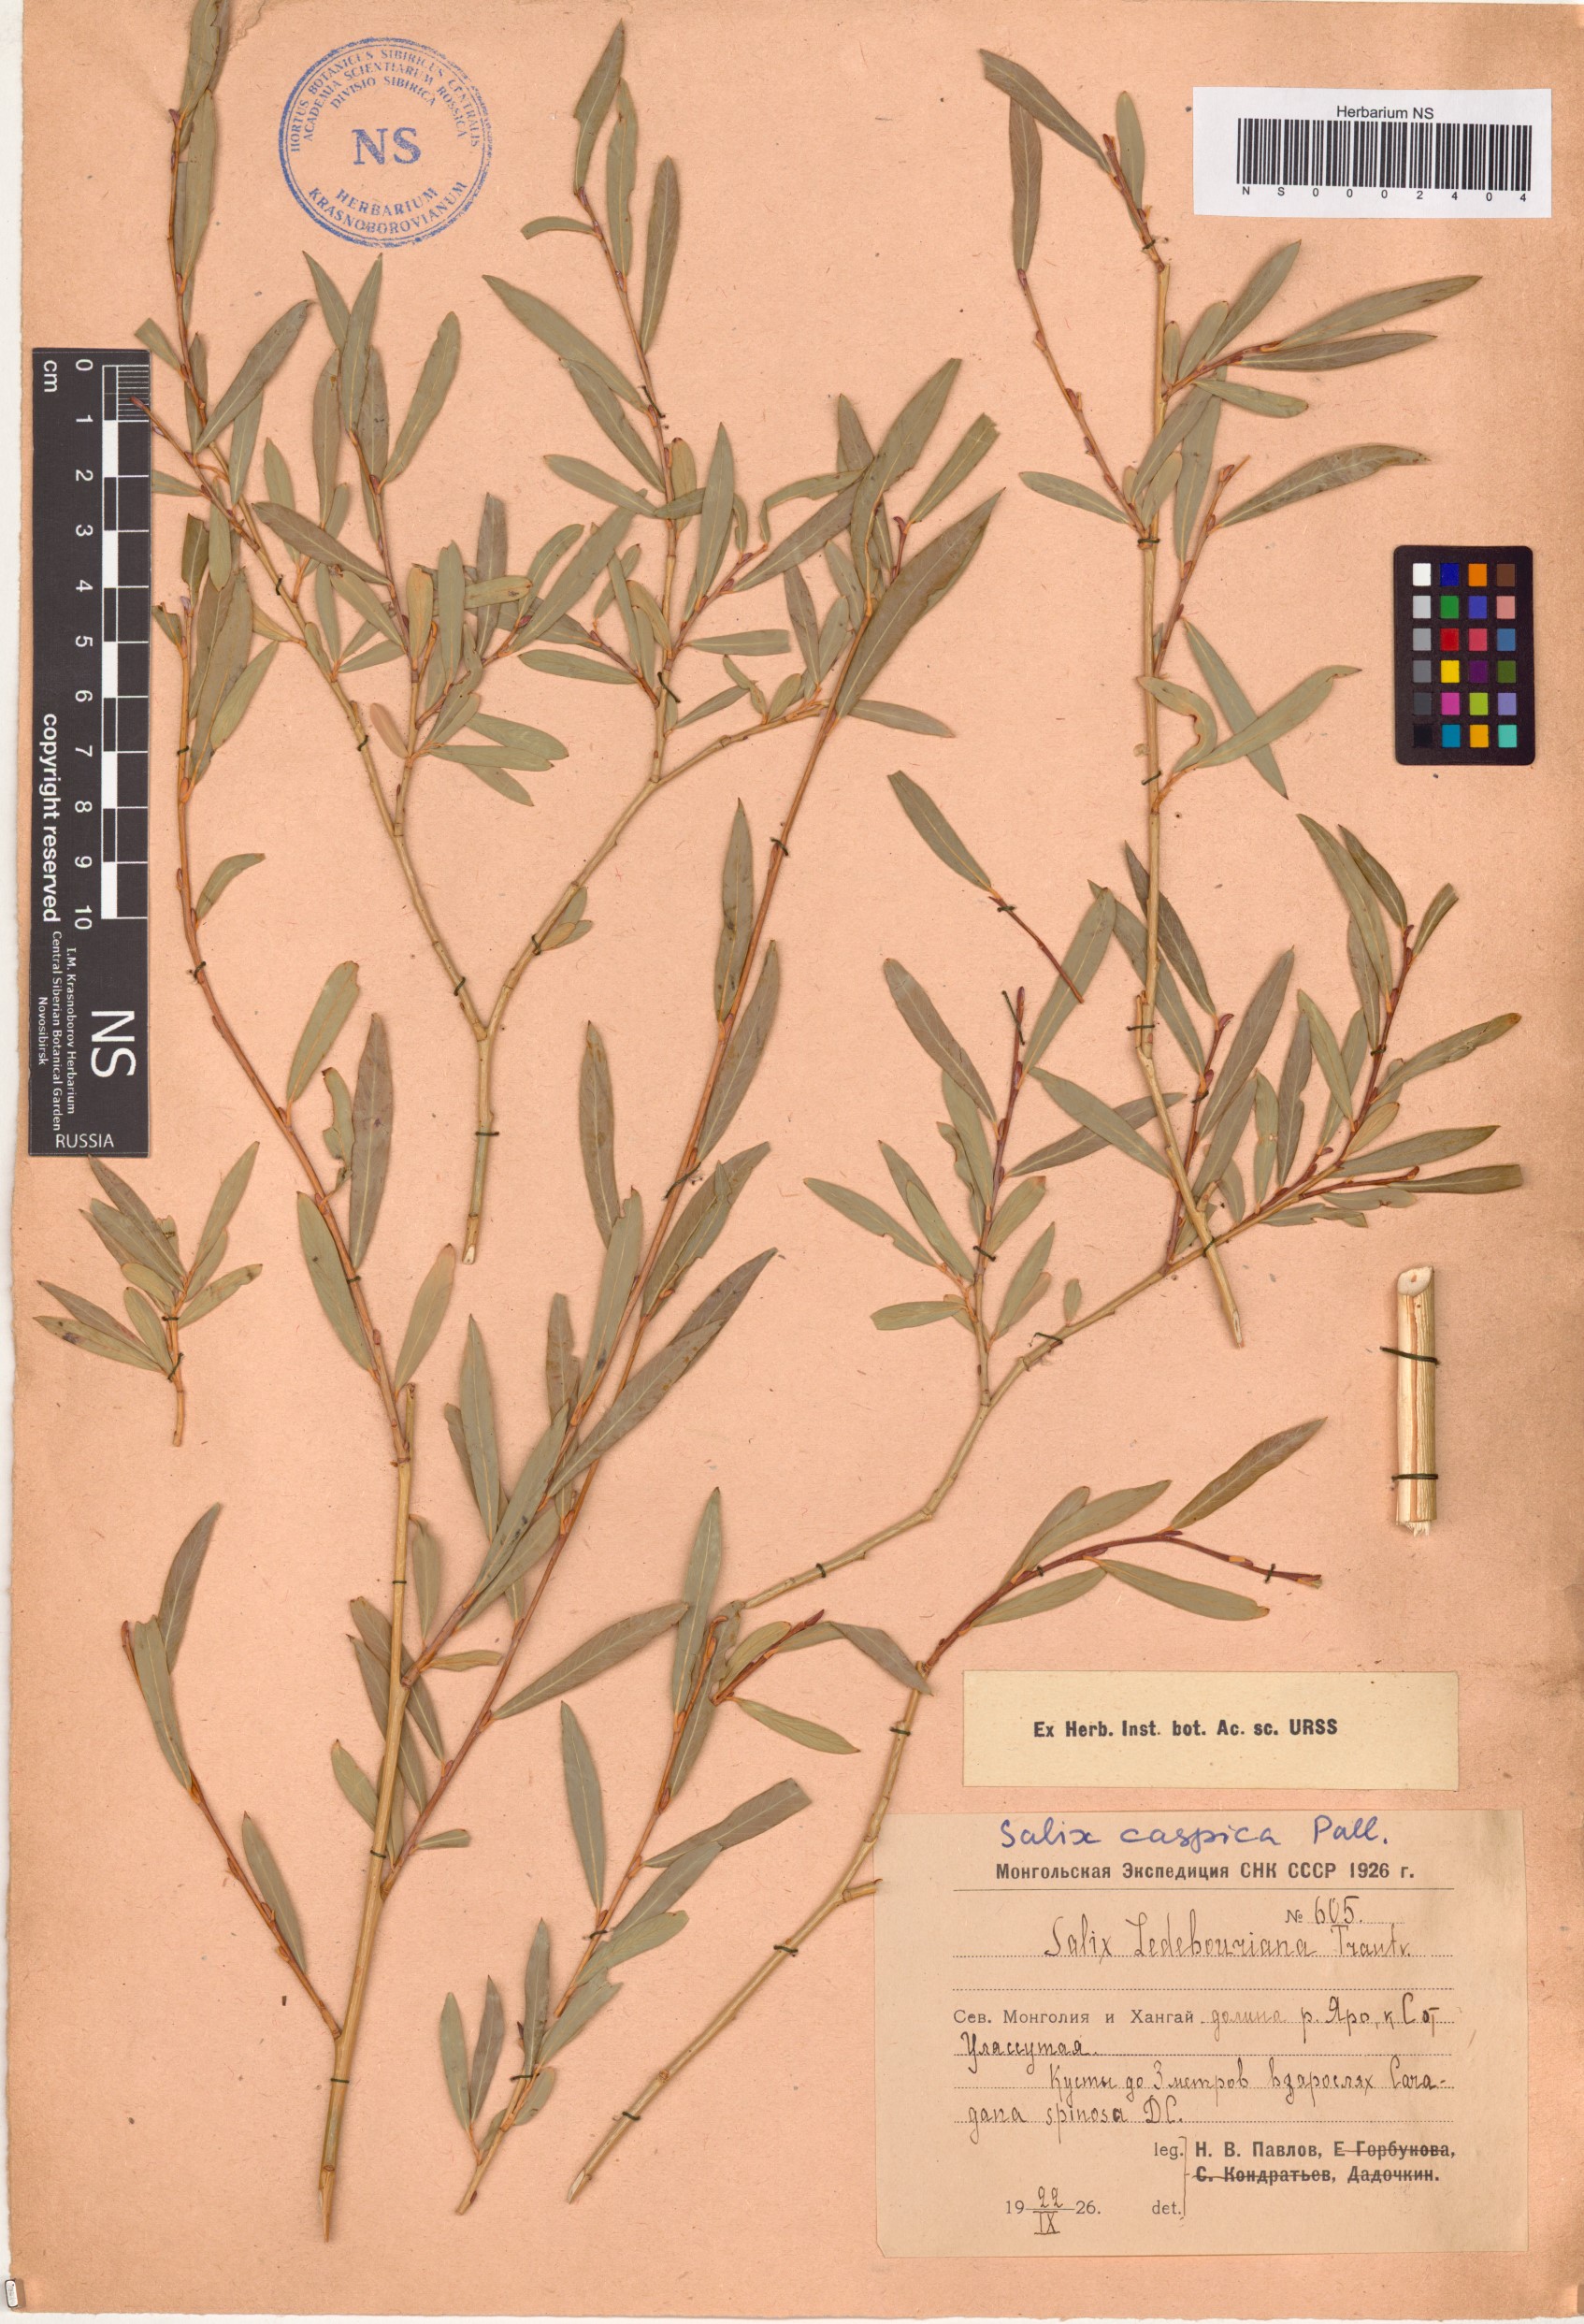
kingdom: Plantae
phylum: Tracheophyta
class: Magnoliopsida
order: Malpighiales
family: Salicaceae
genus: Salix
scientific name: Salix caspica
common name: Caspian willow
